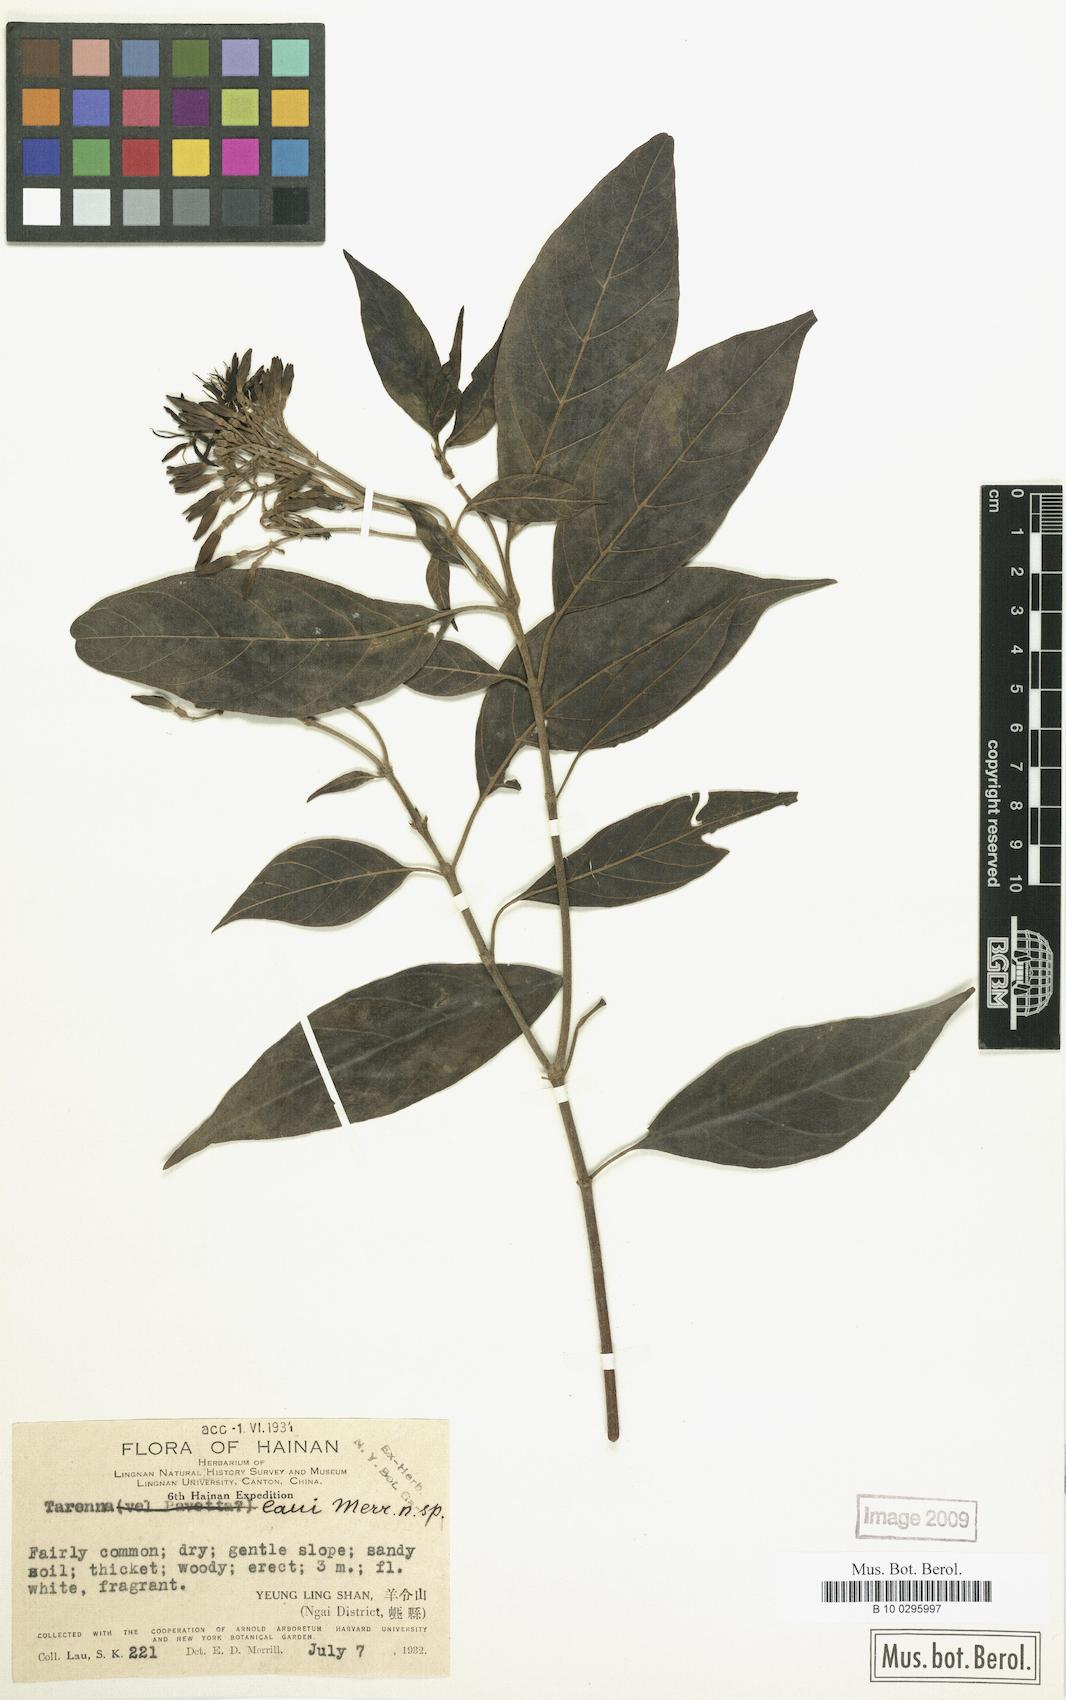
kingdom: Plantae
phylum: Tracheophyta
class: Magnoliopsida
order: Gentianales
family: Rubiaceae
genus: Tarenna
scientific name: Tarenna laui
